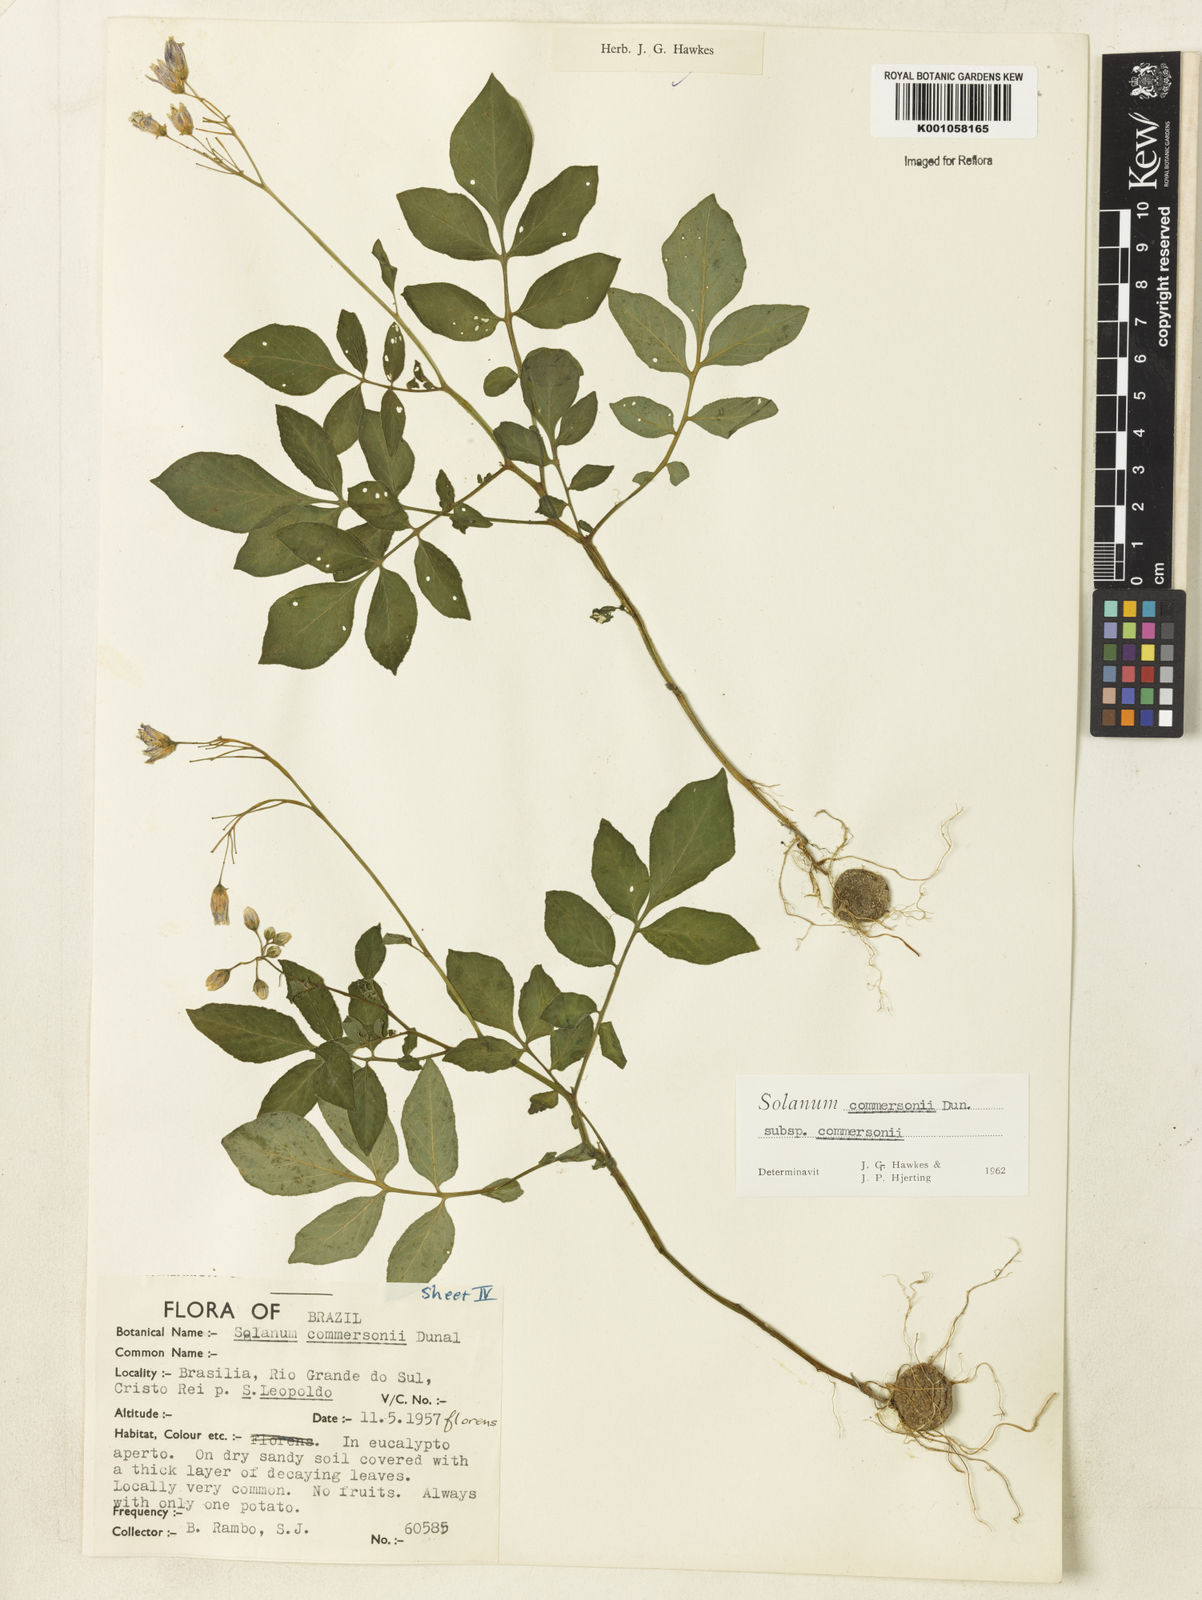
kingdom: Plantae
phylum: Tracheophyta
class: Magnoliopsida
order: Solanales
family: Solanaceae
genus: Solanum
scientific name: Solanum
